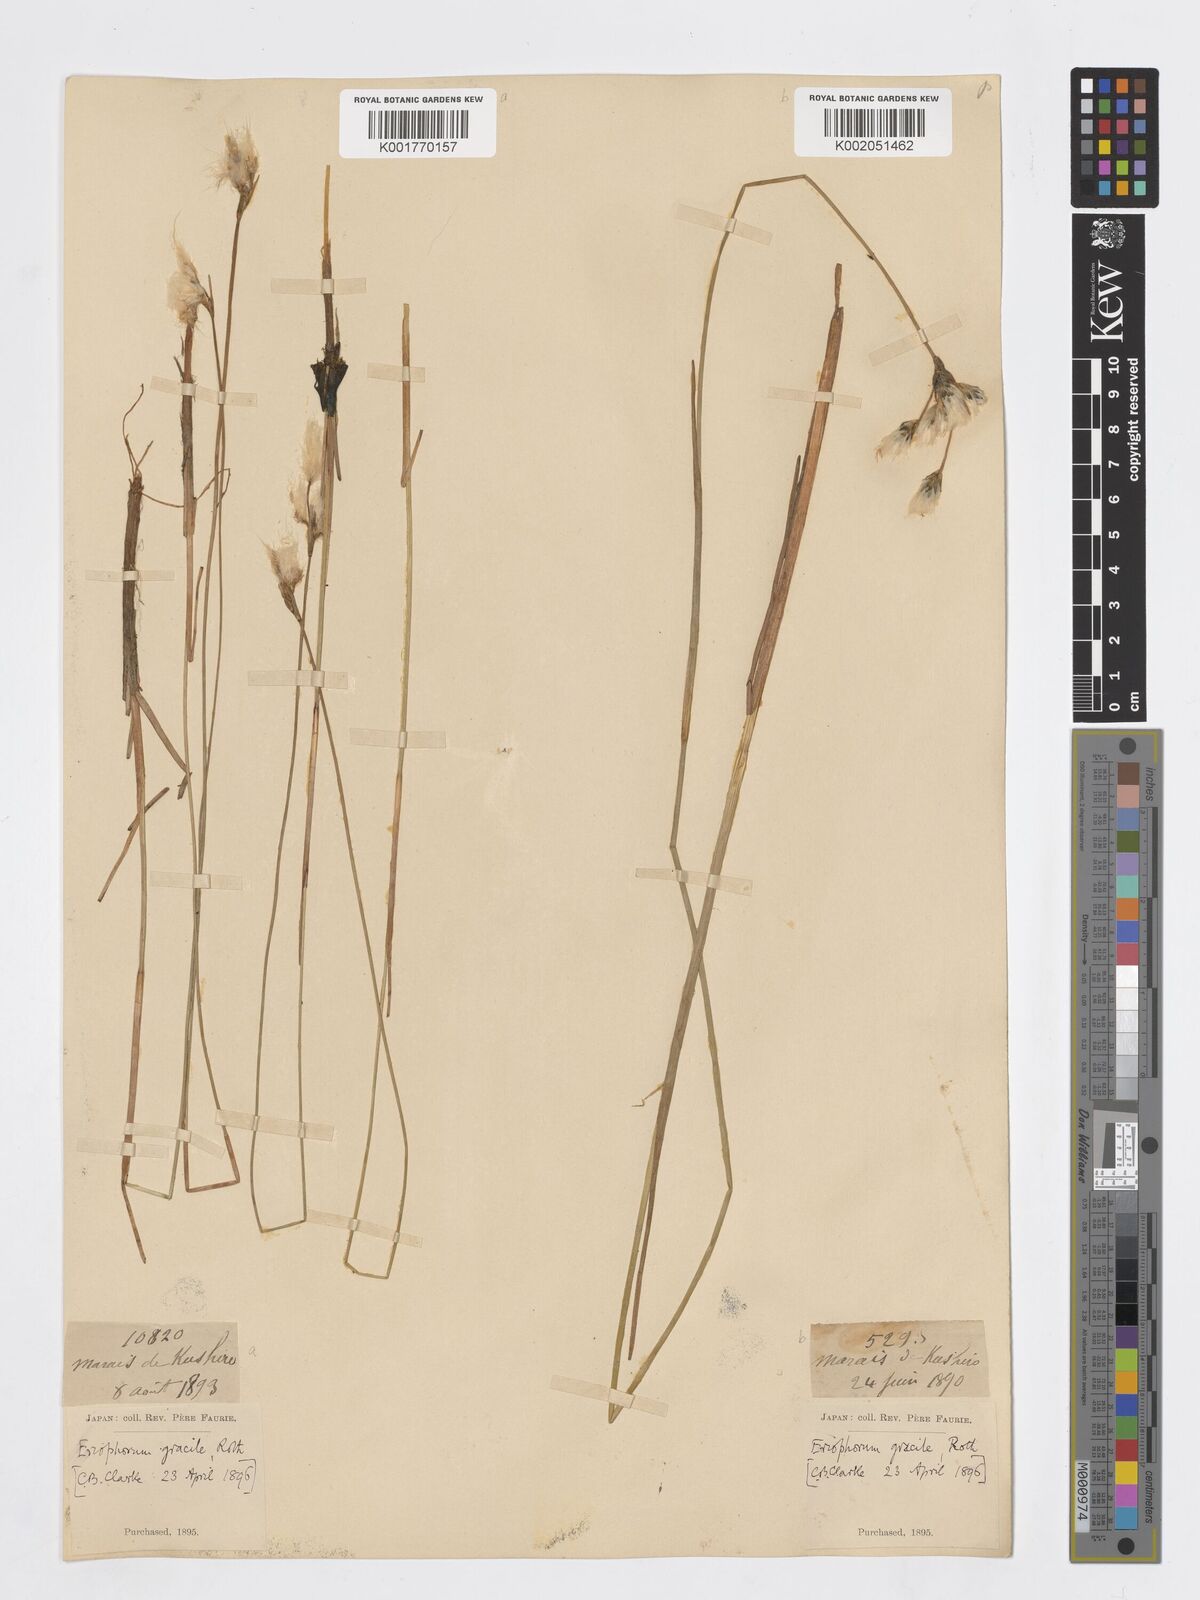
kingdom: Plantae
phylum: Tracheophyta
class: Liliopsida
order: Poales
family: Cyperaceae
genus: Eriophorum
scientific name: Eriophorum gracile
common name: Slender cottongrass
